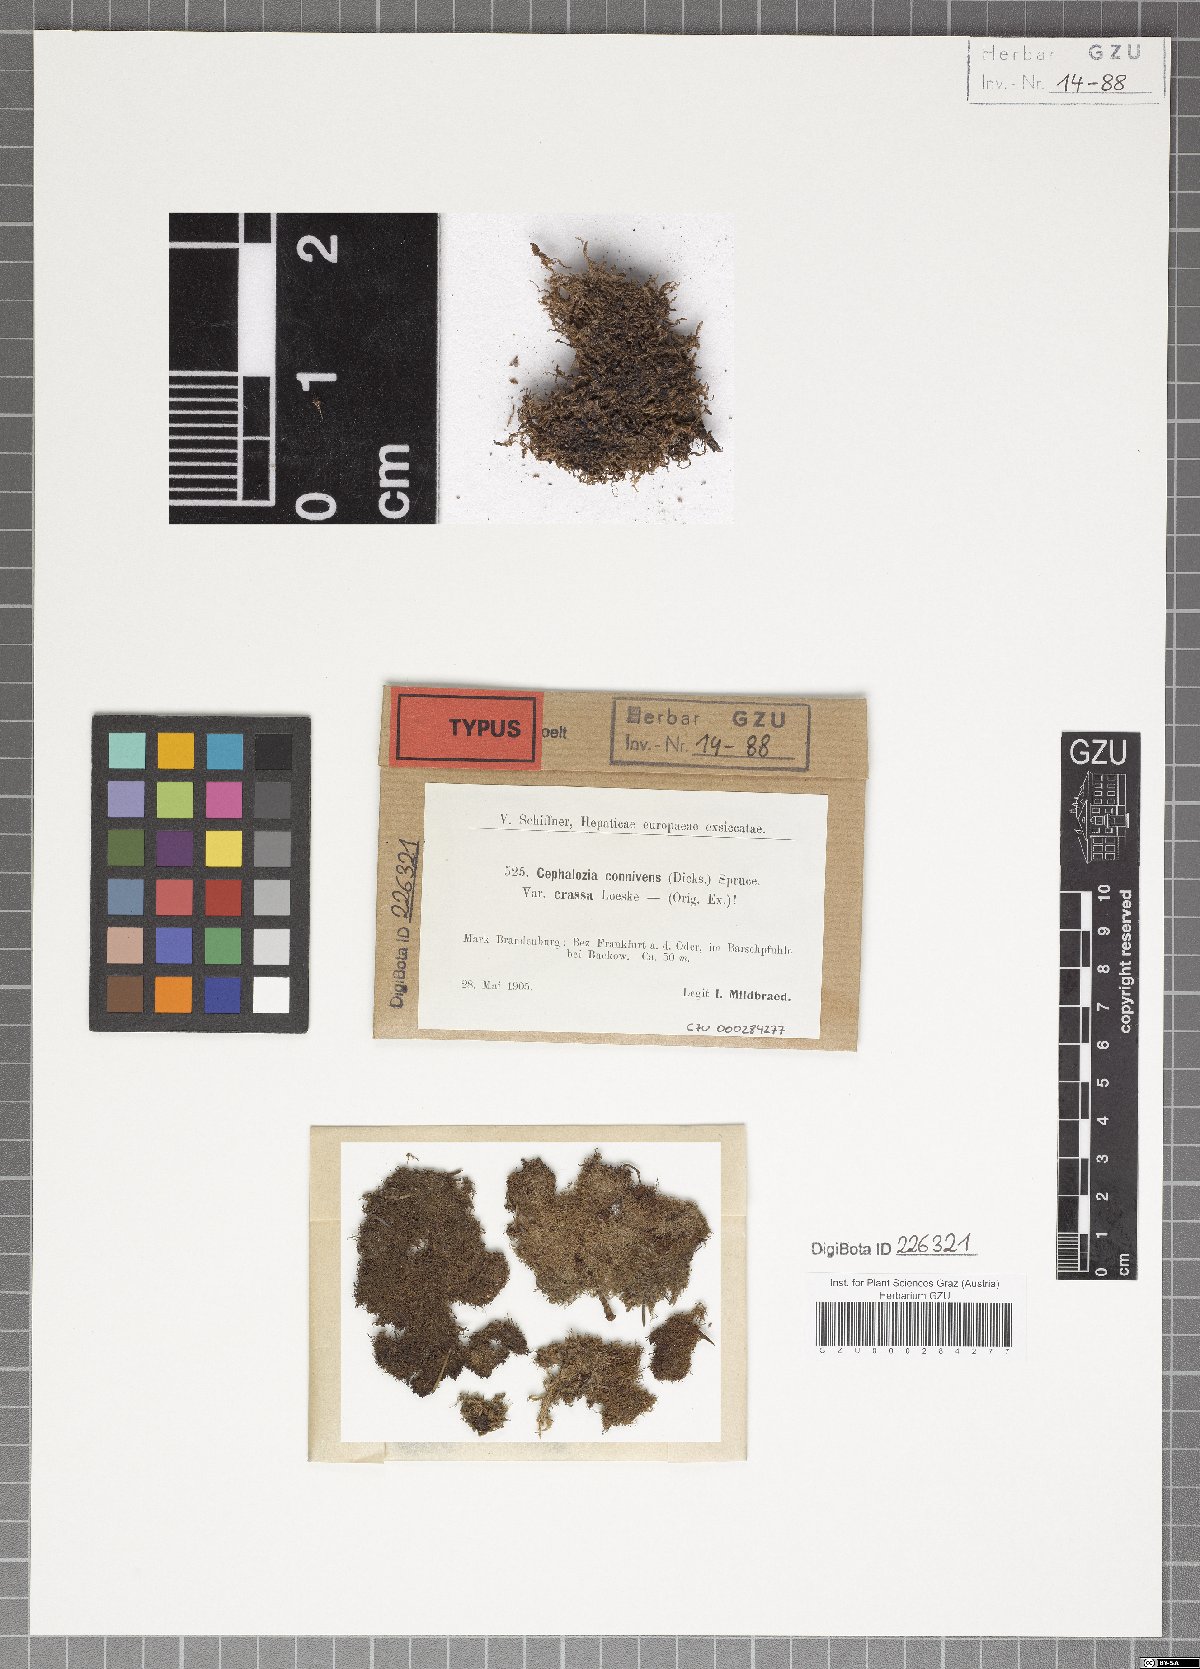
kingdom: Plantae
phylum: Marchantiophyta
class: Jungermanniopsida
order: Jungermanniales
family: Cephaloziaceae
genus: Fuscocephaloziopsis
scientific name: Fuscocephaloziopsis connivens
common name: Forcipated pincerwort
